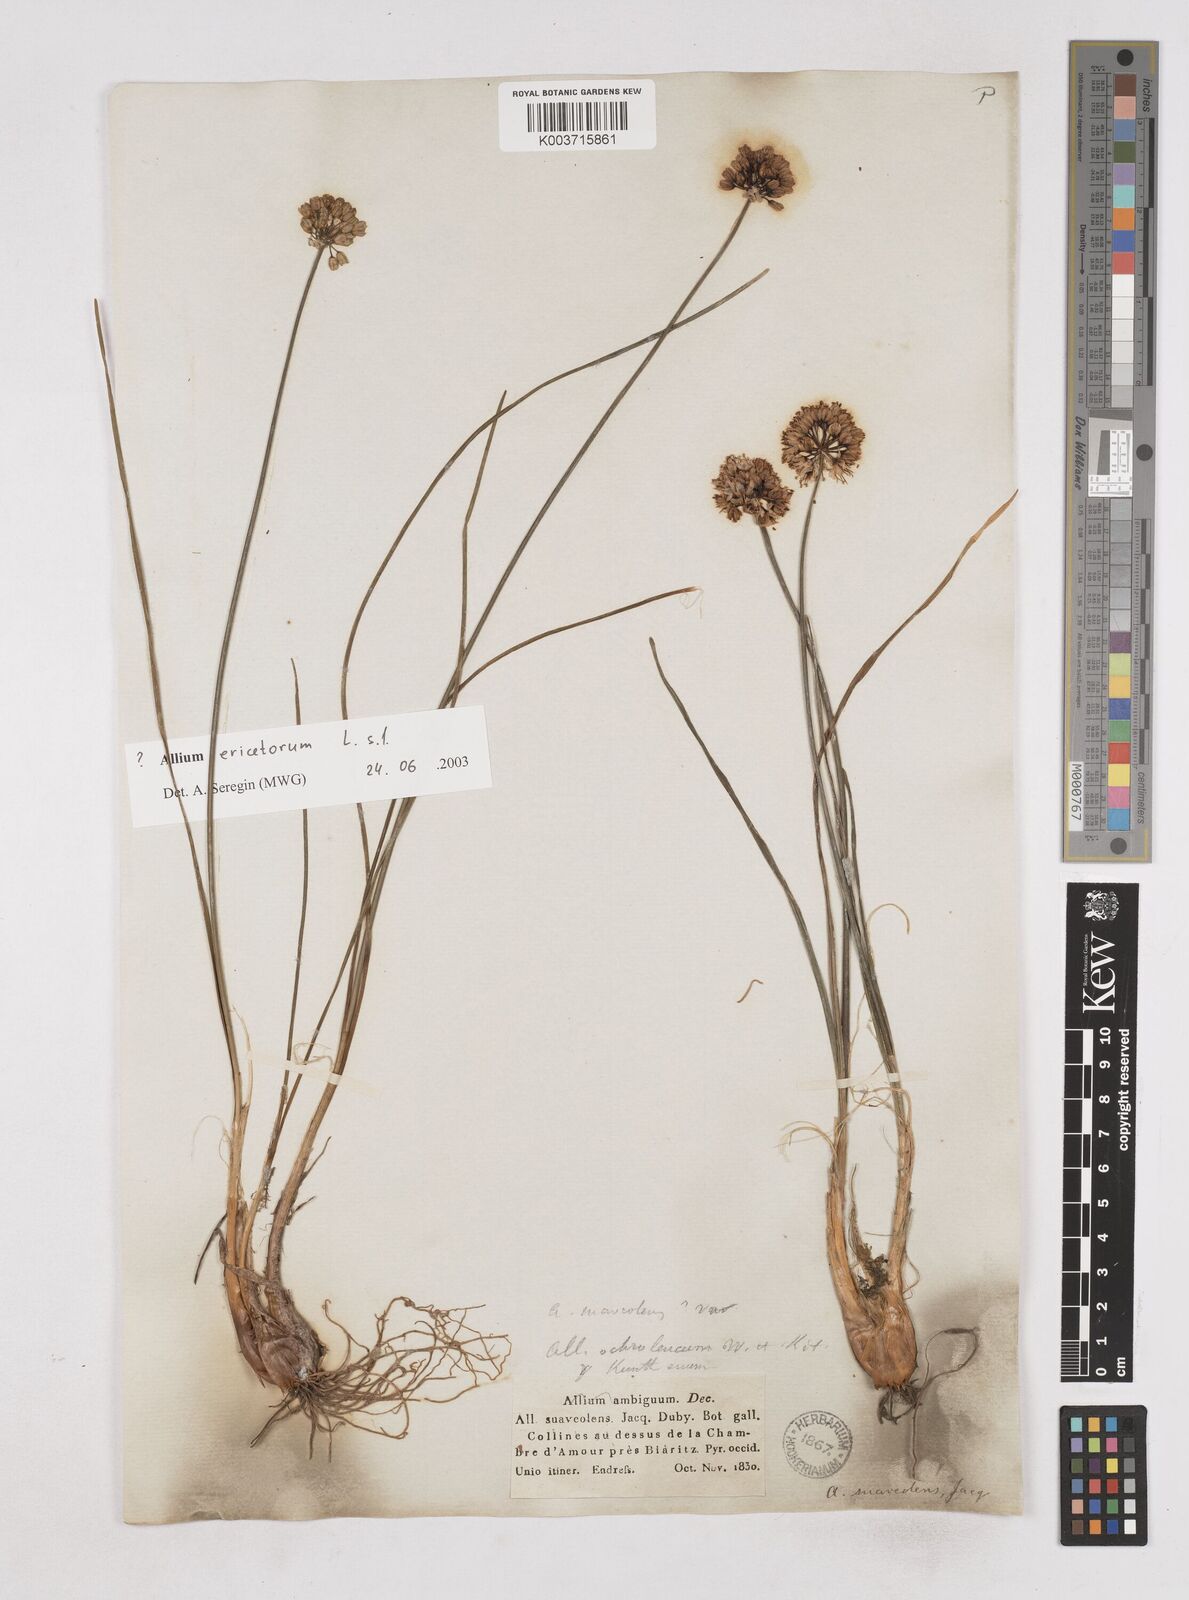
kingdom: Plantae
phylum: Tracheophyta
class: Liliopsida
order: Asparagales
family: Amaryllidaceae
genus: Allium
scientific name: Allium ericetorum
